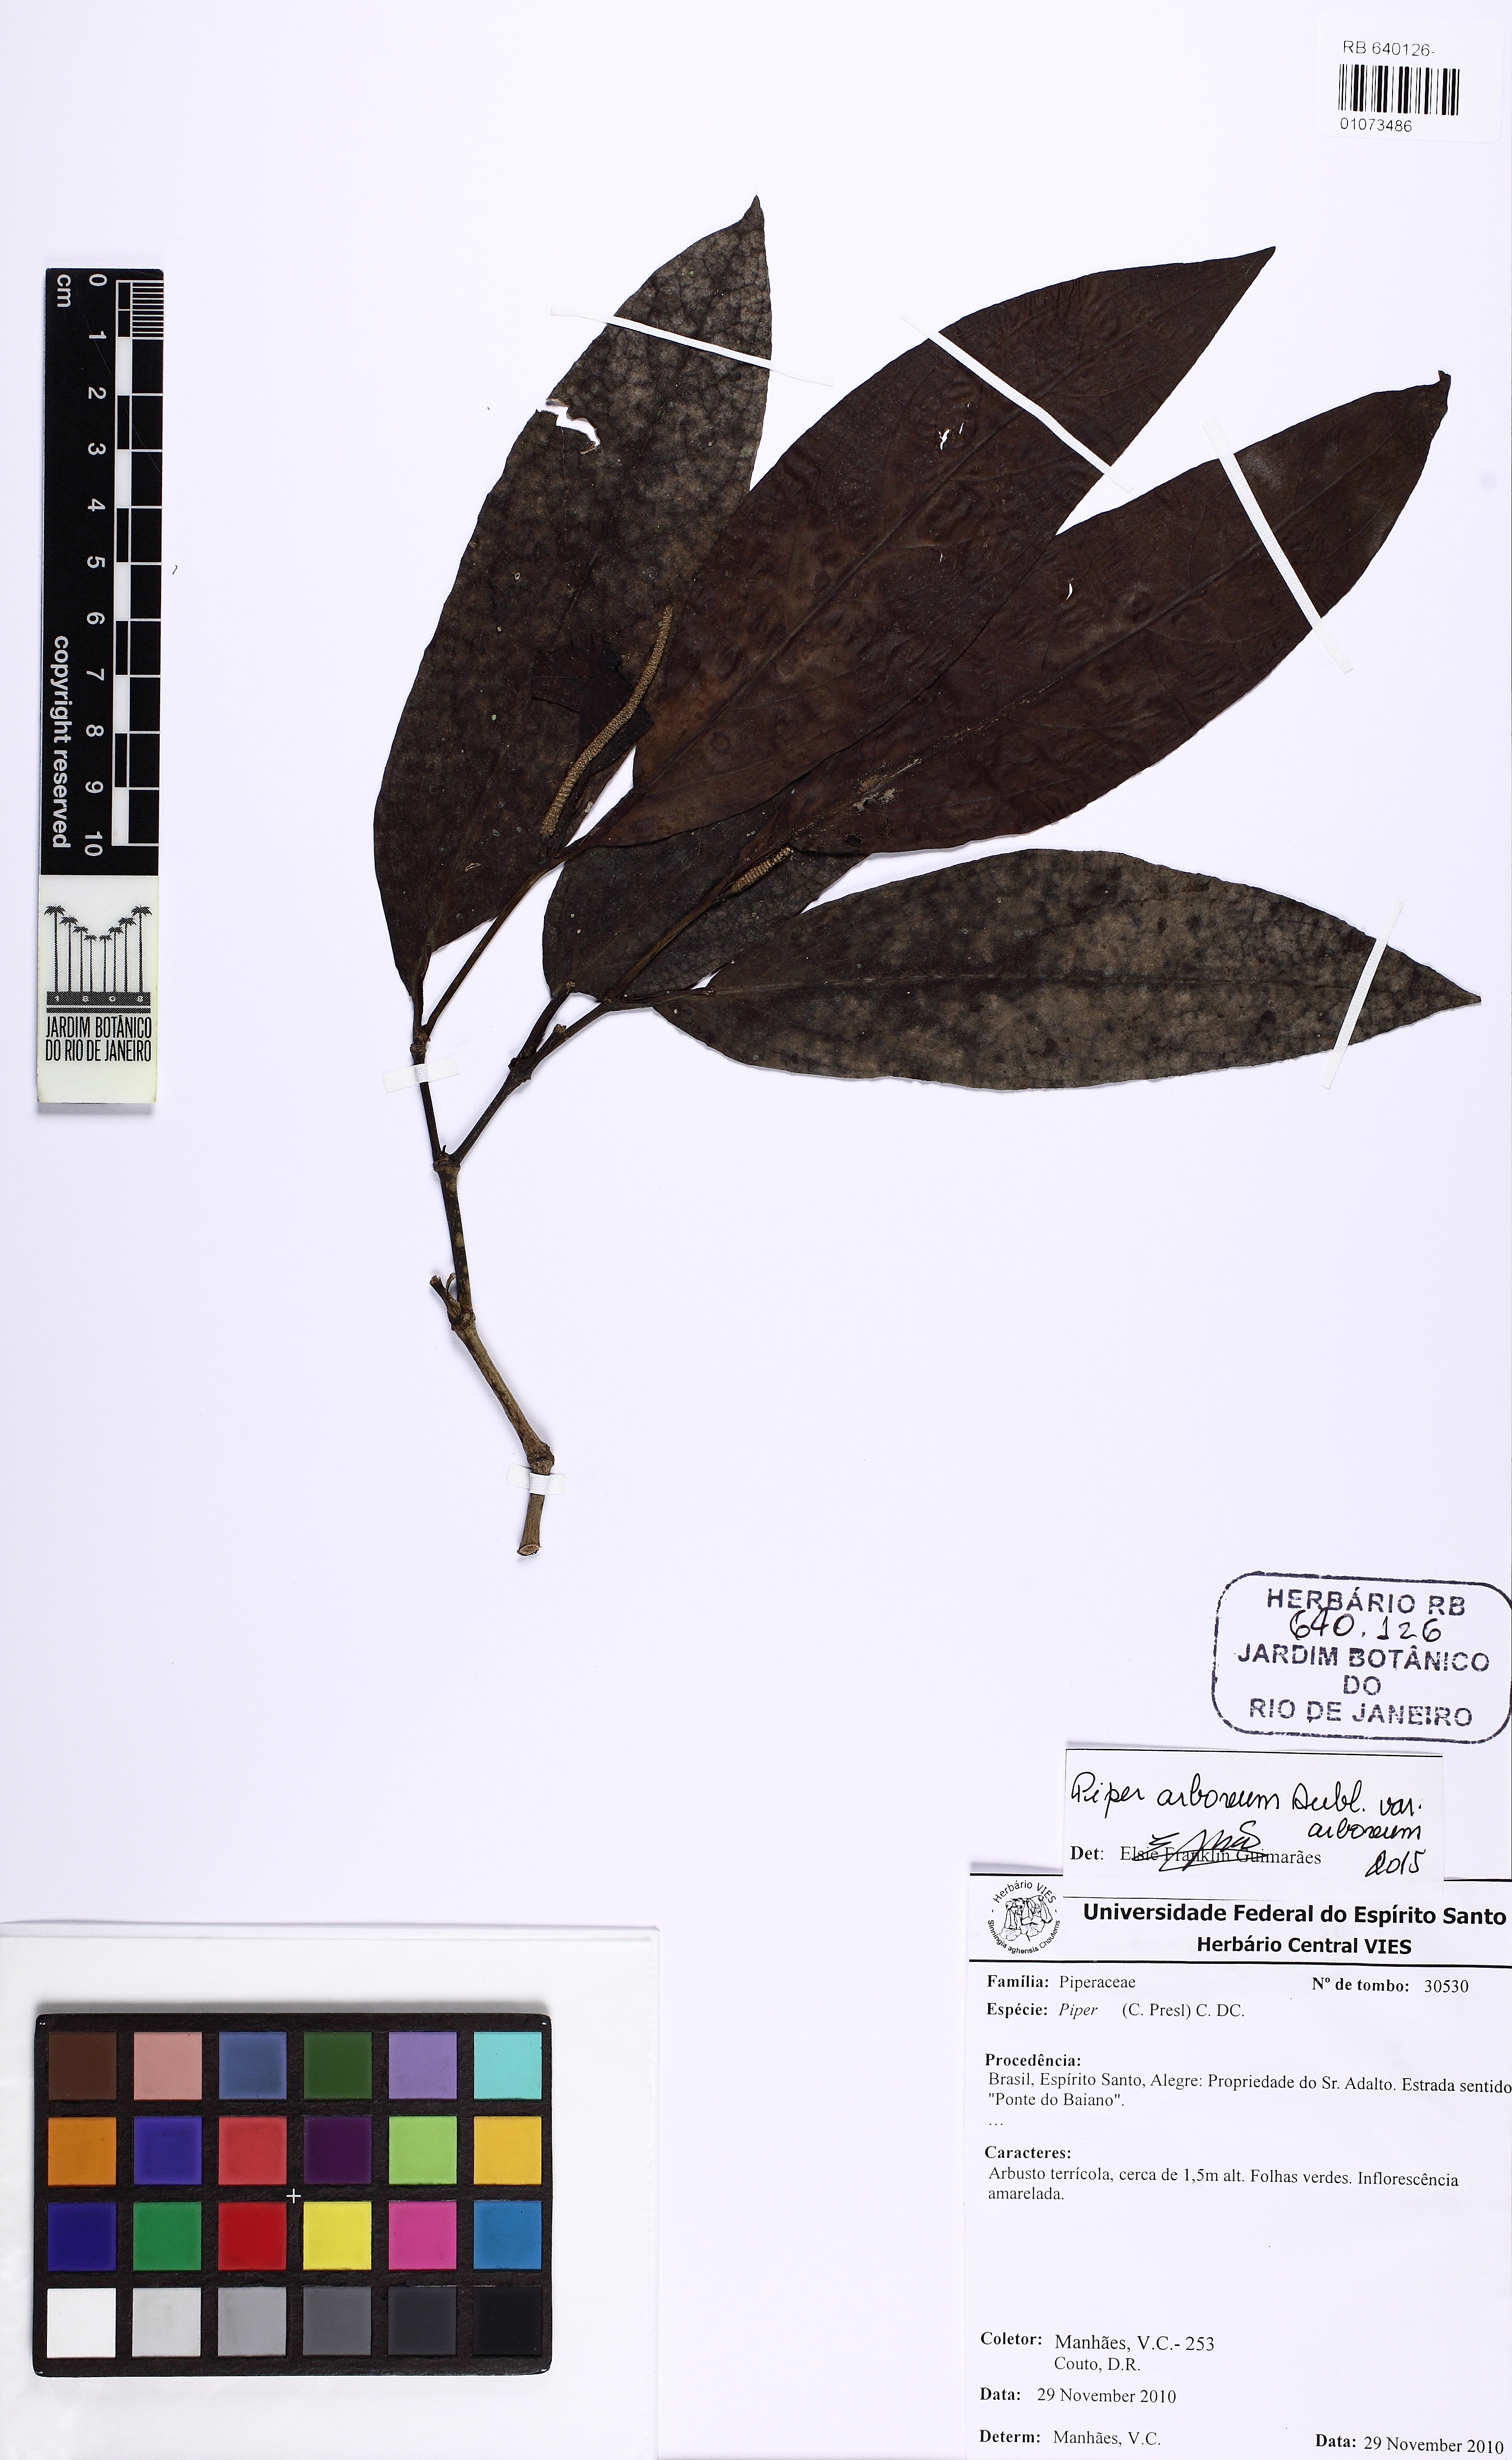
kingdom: Plantae
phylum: Tracheophyta
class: Magnoliopsida
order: Piperales
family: Piperaceae
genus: Piper
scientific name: Piper arboreum
